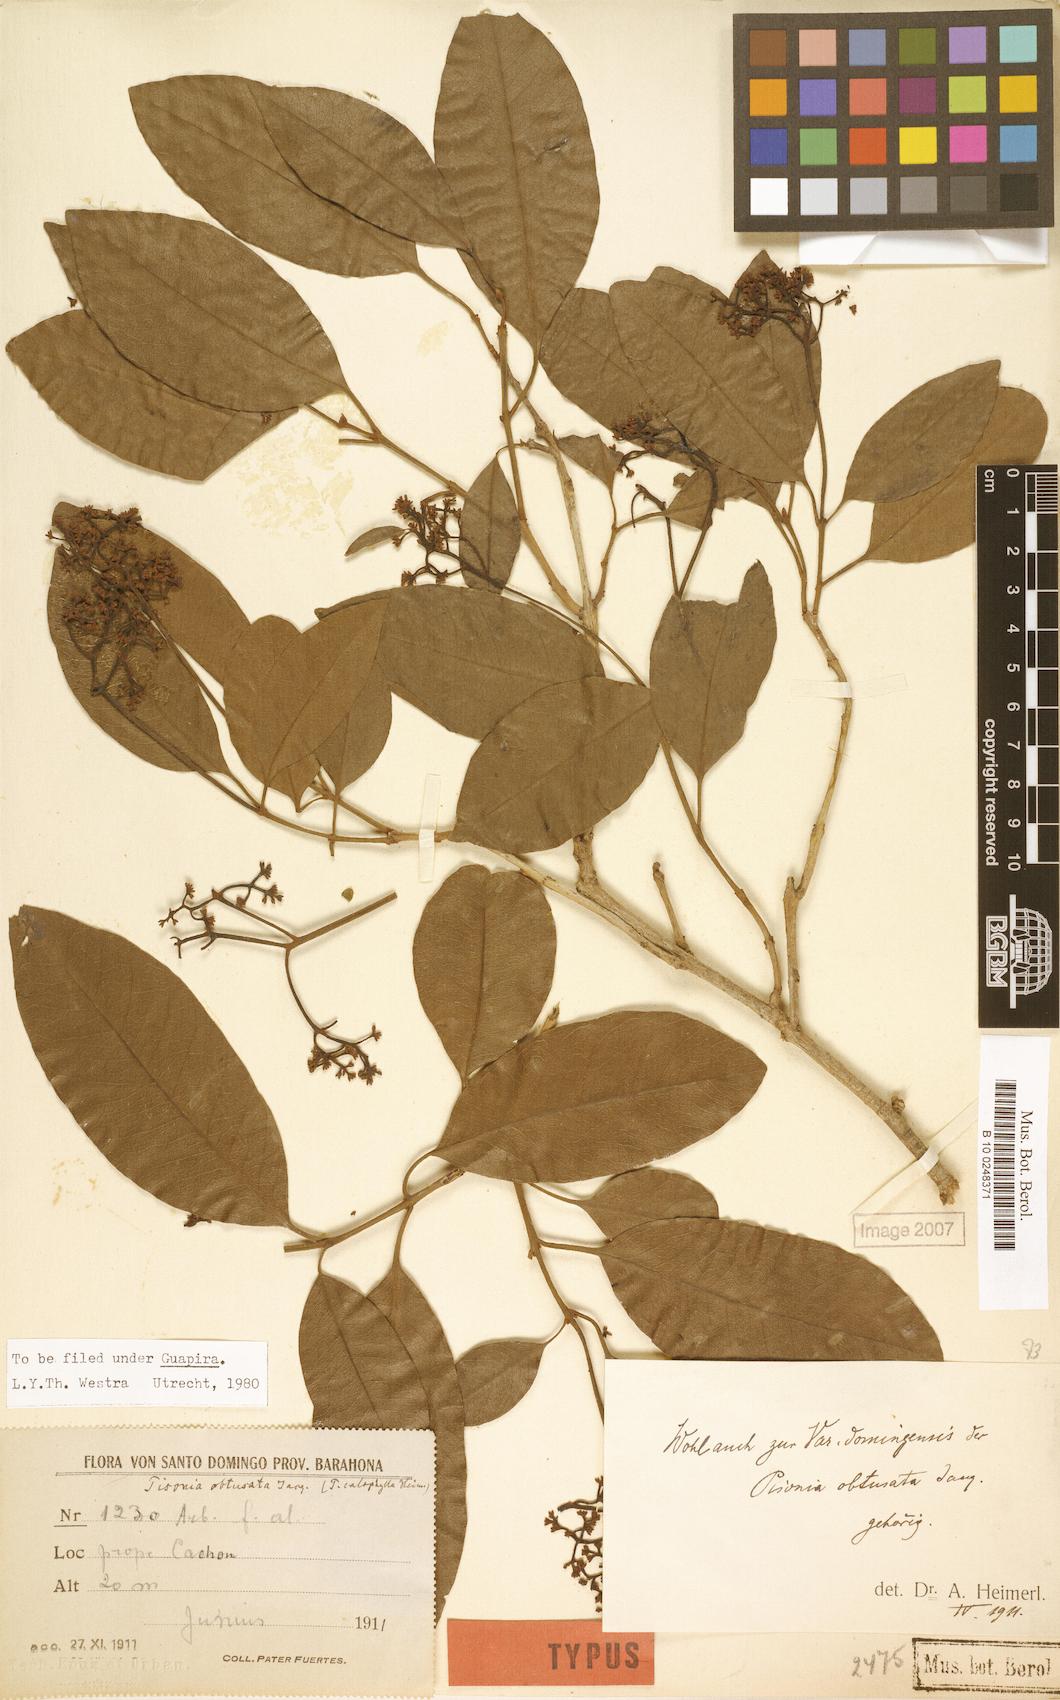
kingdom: Plantae
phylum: Tracheophyta
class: Magnoliopsida
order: Caryophyllales
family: Nyctaginaceae
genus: Guapira
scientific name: Guapira domingensis
